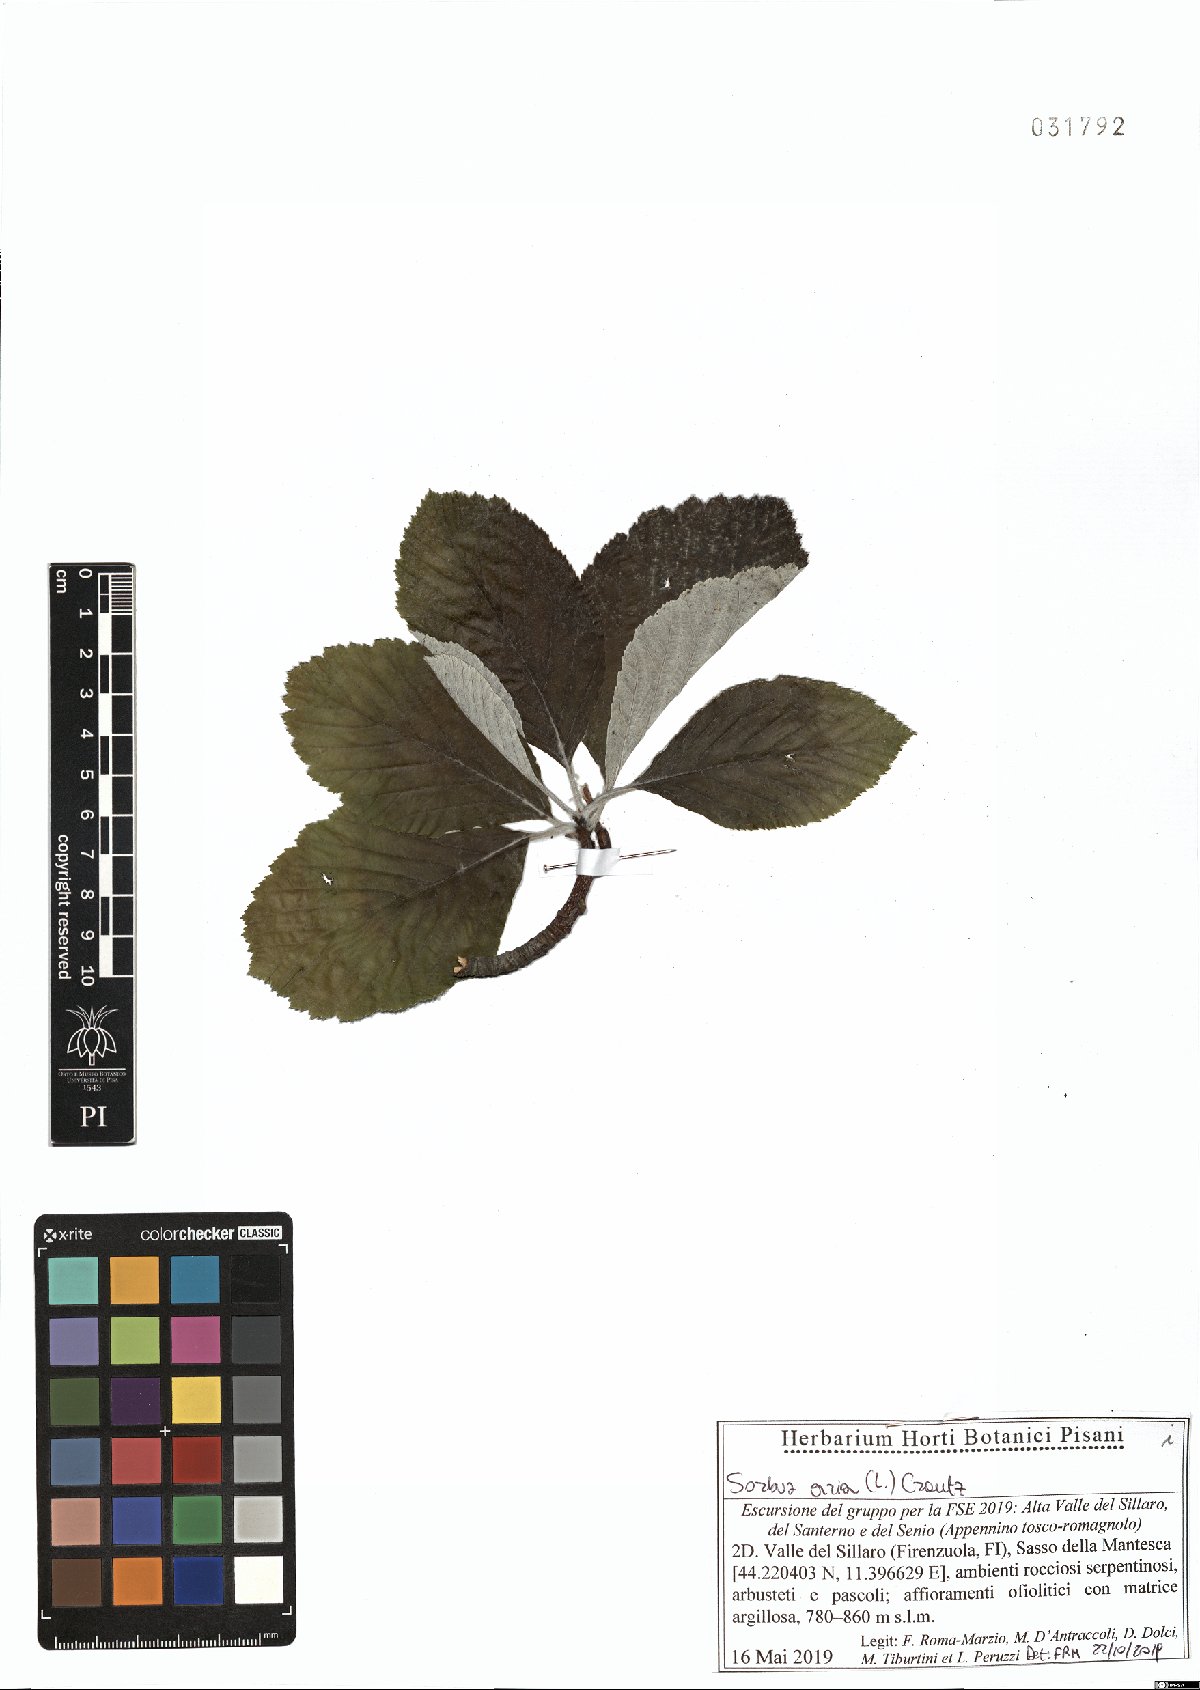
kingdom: Plantae
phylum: Tracheophyta
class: Magnoliopsida
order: Rosales
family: Rosaceae
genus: Aria
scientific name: Aria edulis
